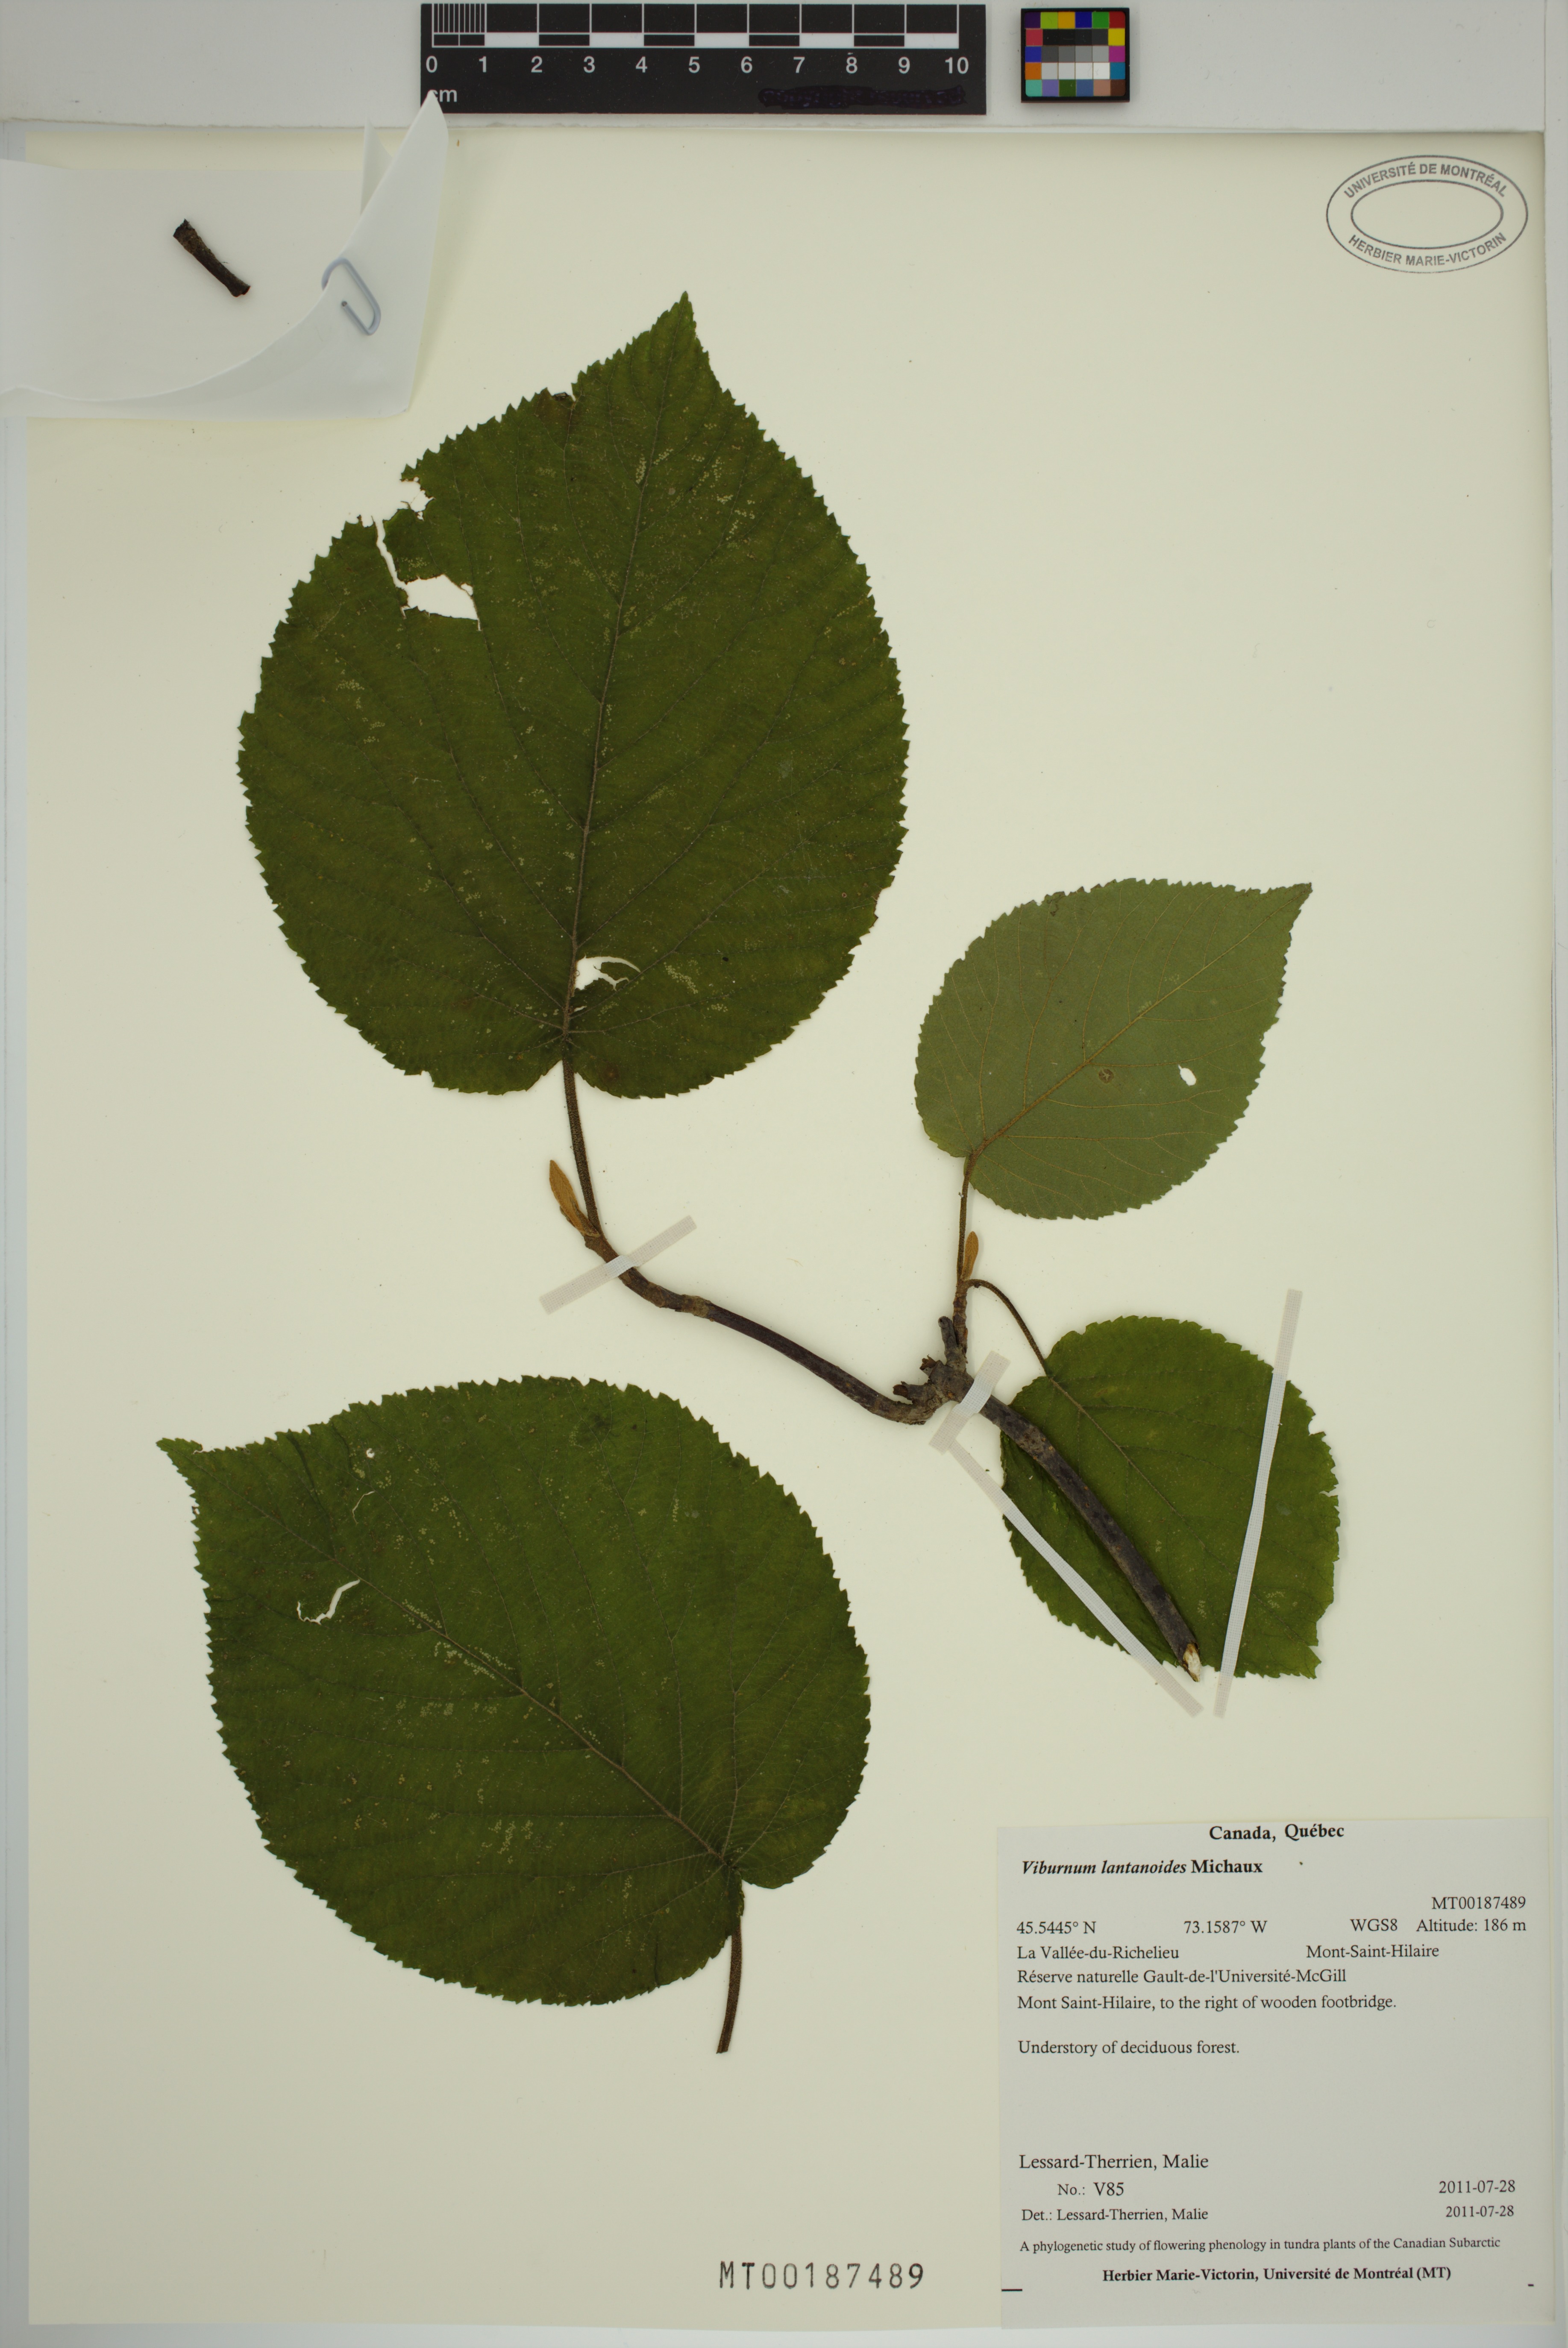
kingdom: Plantae
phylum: Tracheophyta
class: Magnoliopsida
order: Dipsacales
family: Viburnaceae
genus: Viburnum
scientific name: Viburnum lantanoides
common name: Hobblebush
